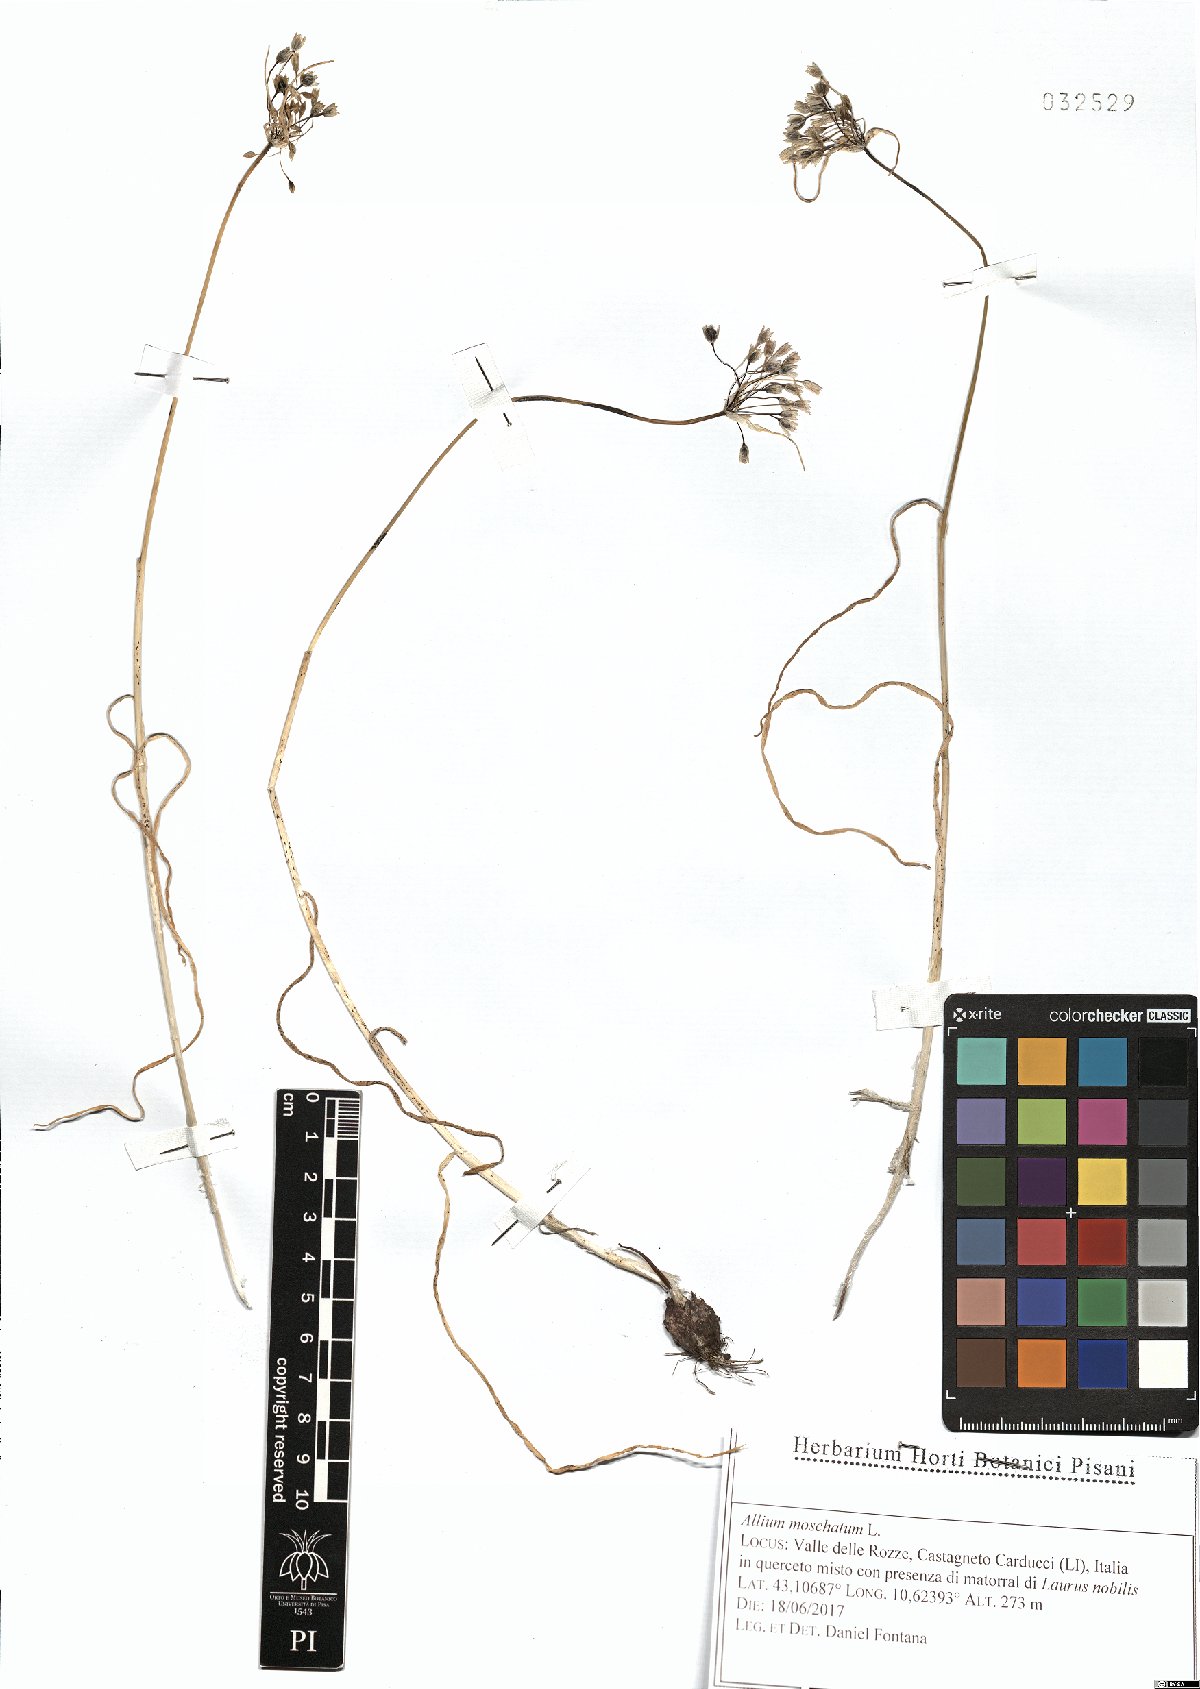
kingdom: Plantae
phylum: Tracheophyta
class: Liliopsida
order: Asparagales
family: Amaryllidaceae
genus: Allium
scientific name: Allium moschatum
